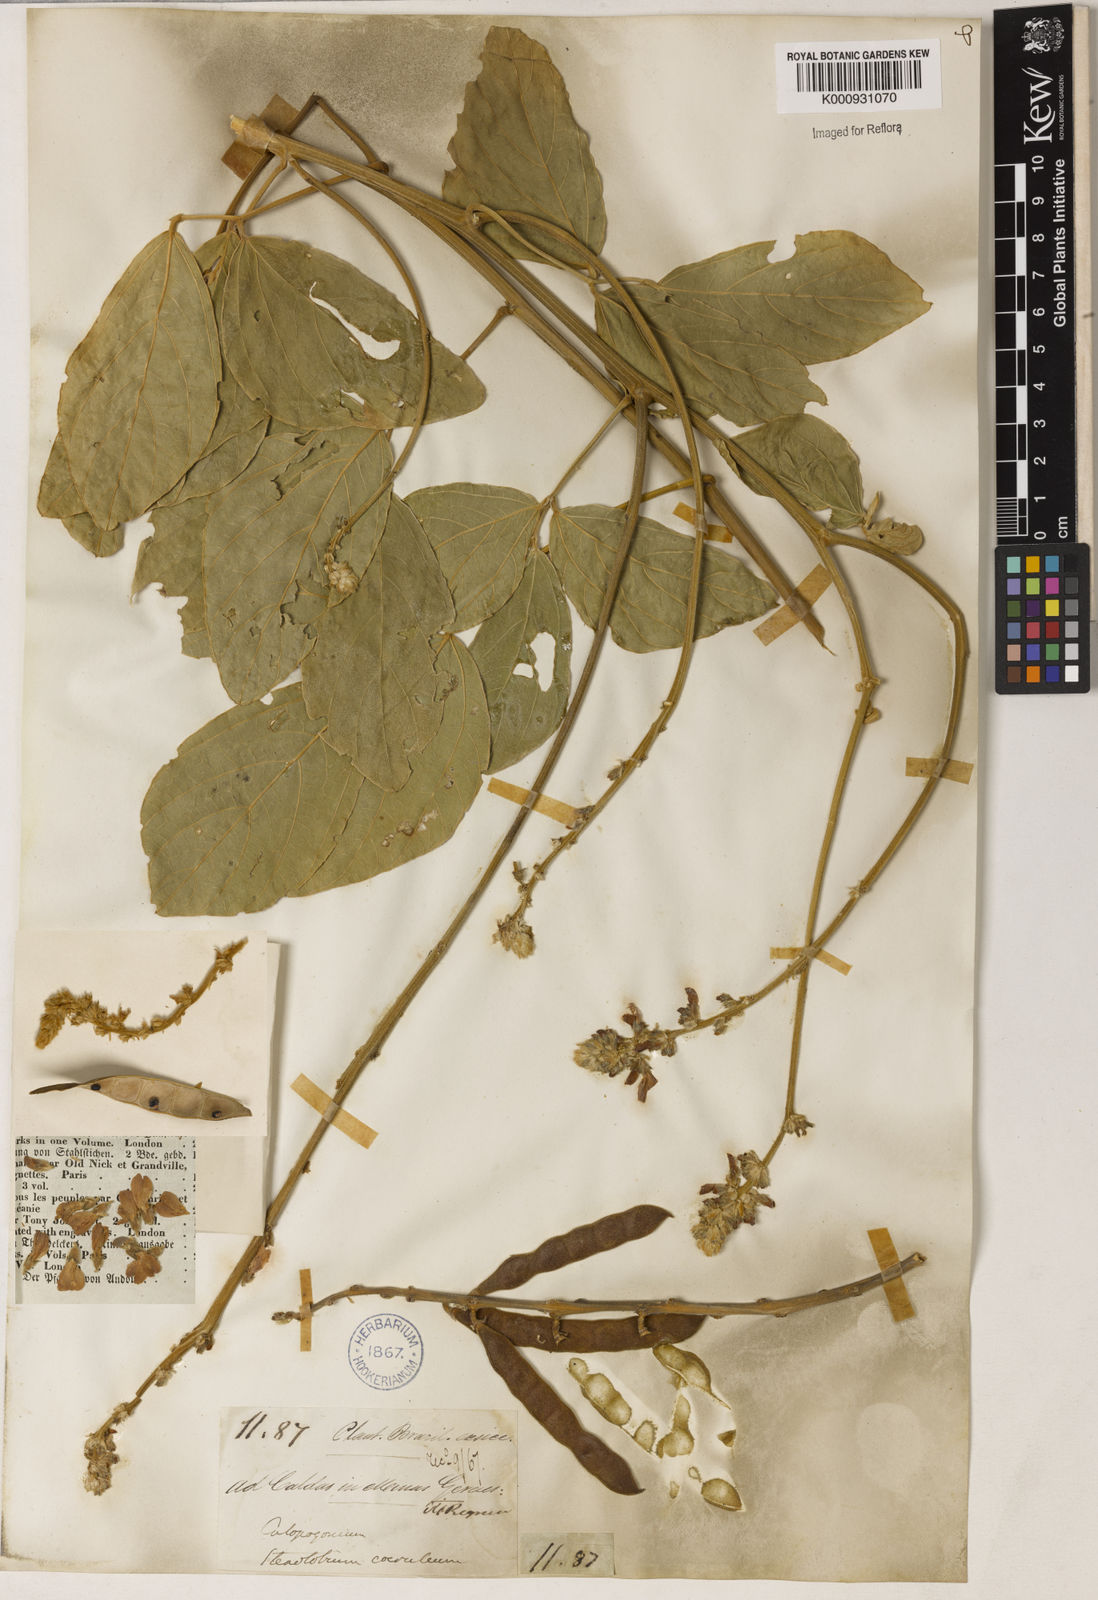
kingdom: Plantae
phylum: Tracheophyta
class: Magnoliopsida
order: Fabales
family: Fabaceae
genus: Calopogonium
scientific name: Calopogonium caeruleum
